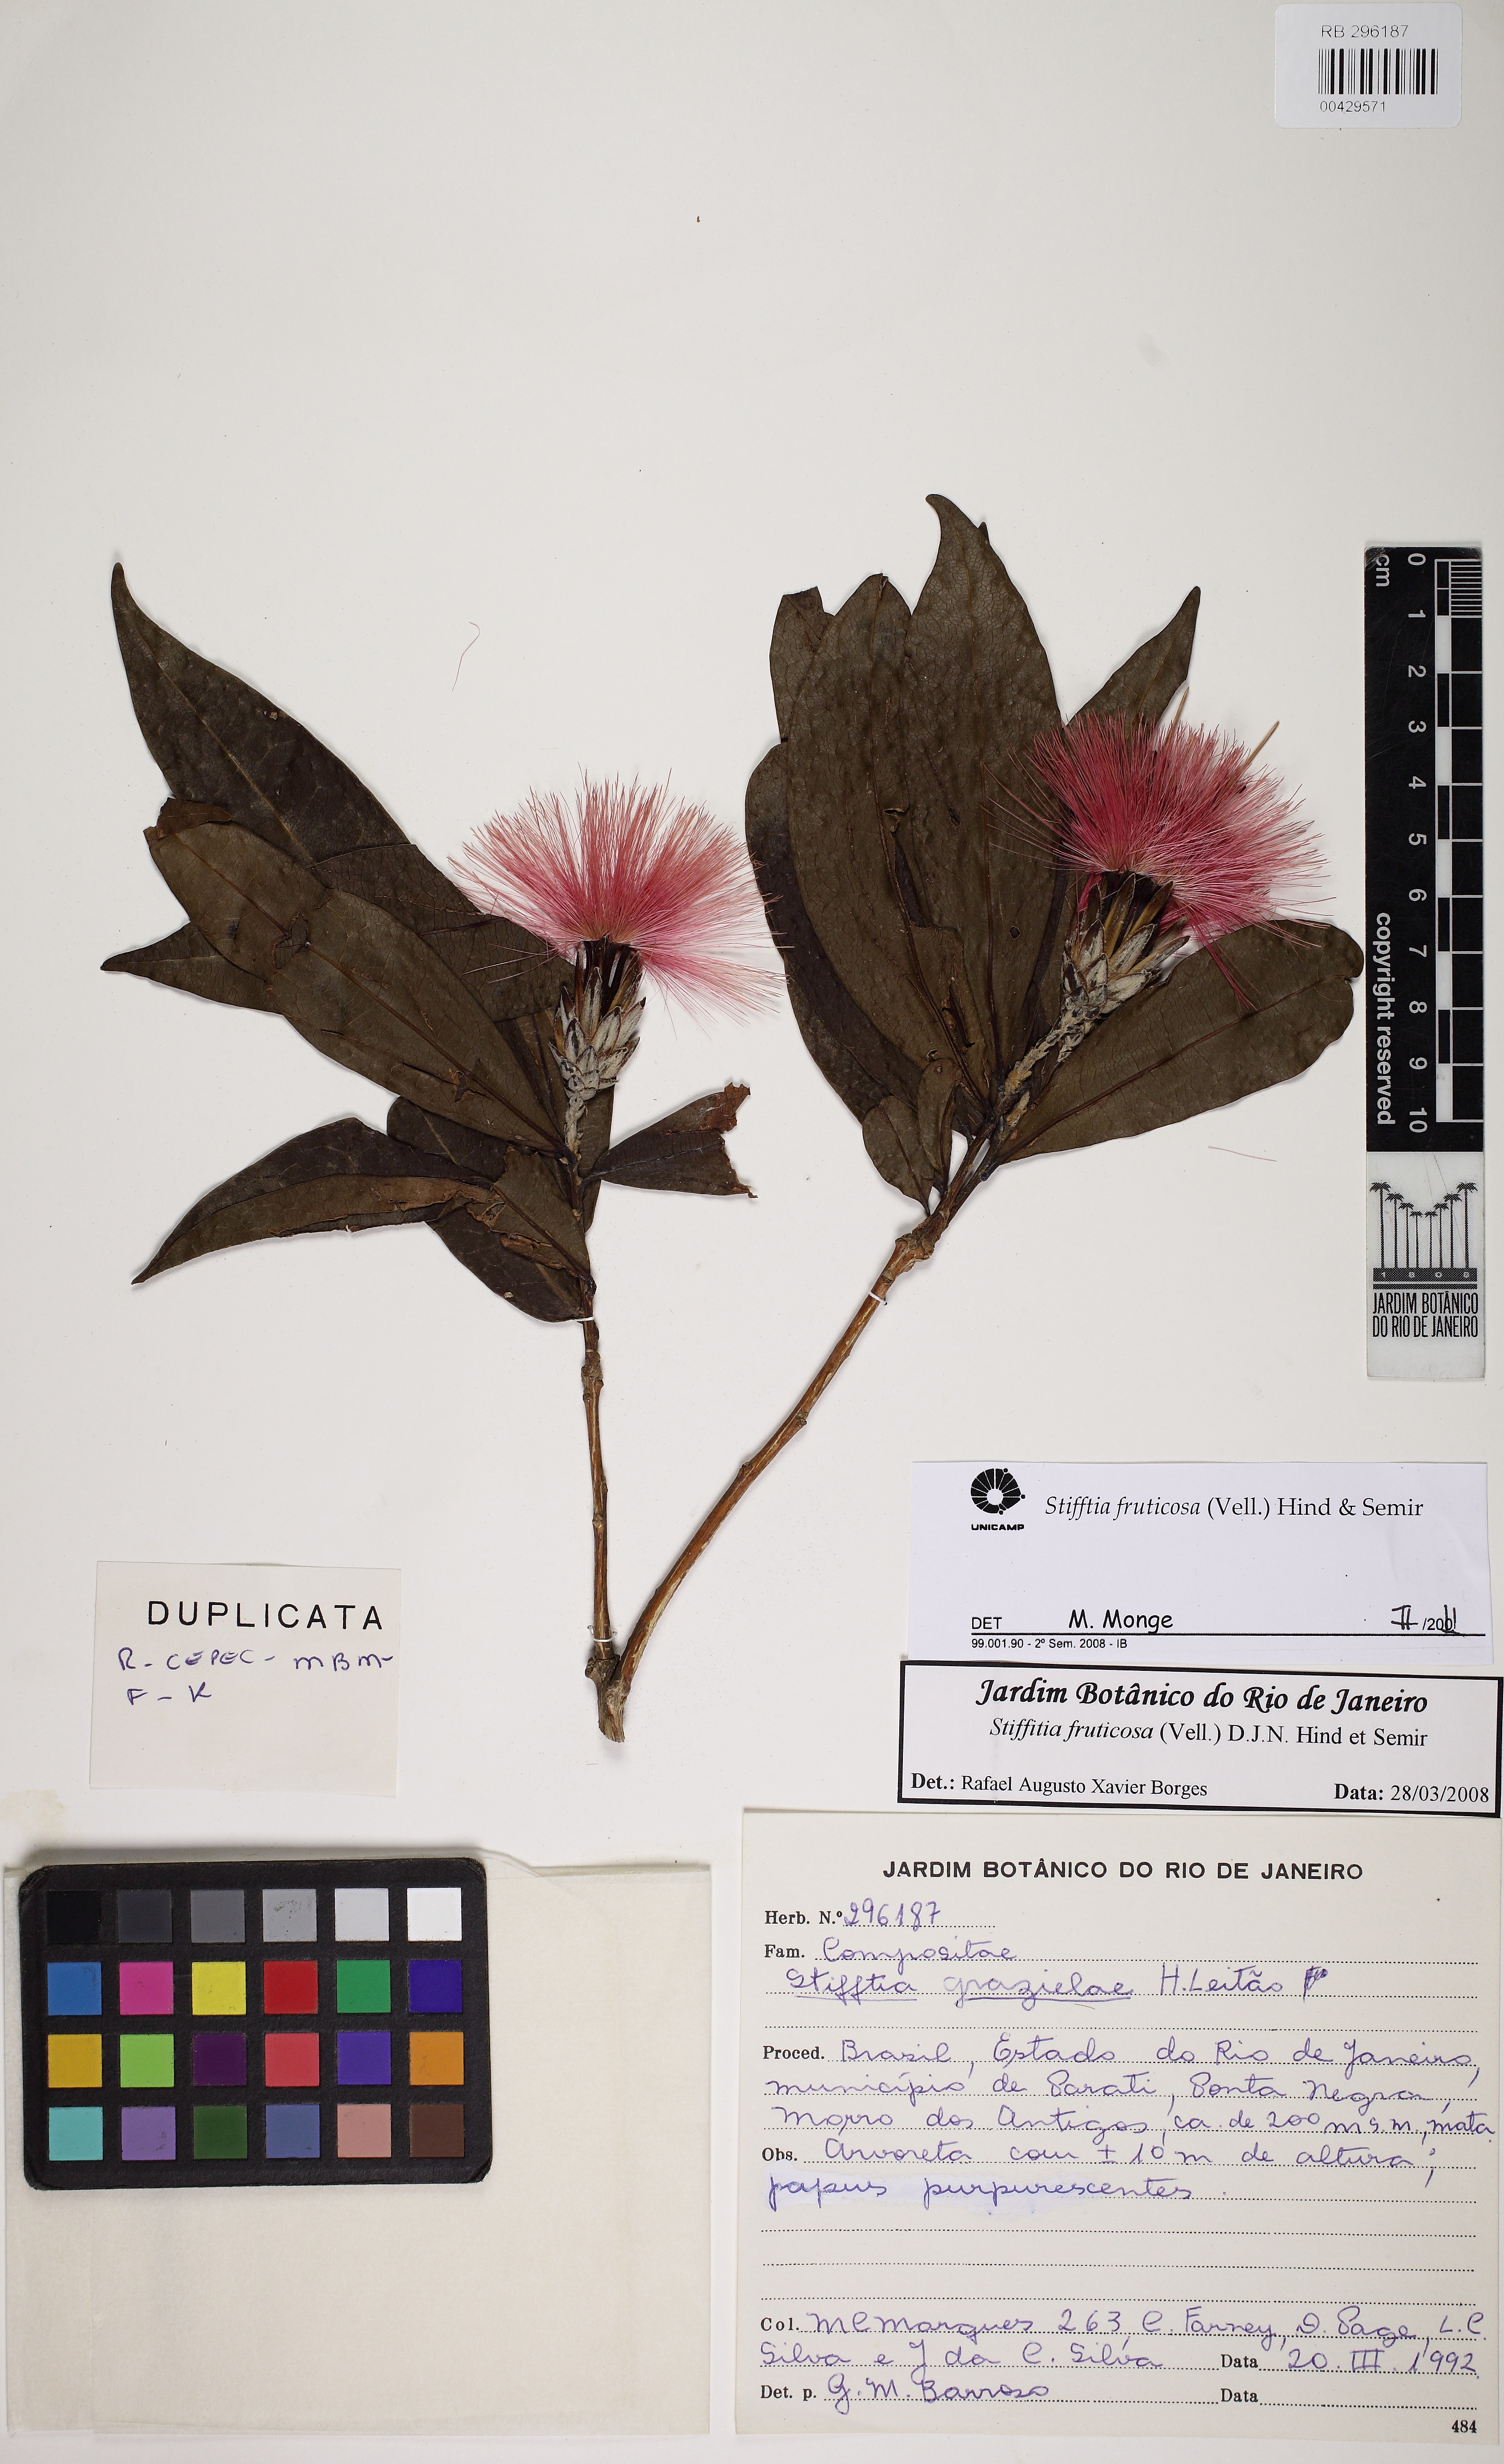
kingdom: Plantae
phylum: Tracheophyta
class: Magnoliopsida
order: Asterales
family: Asteraceae
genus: Stifftia
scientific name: Stifftia fruticosa
